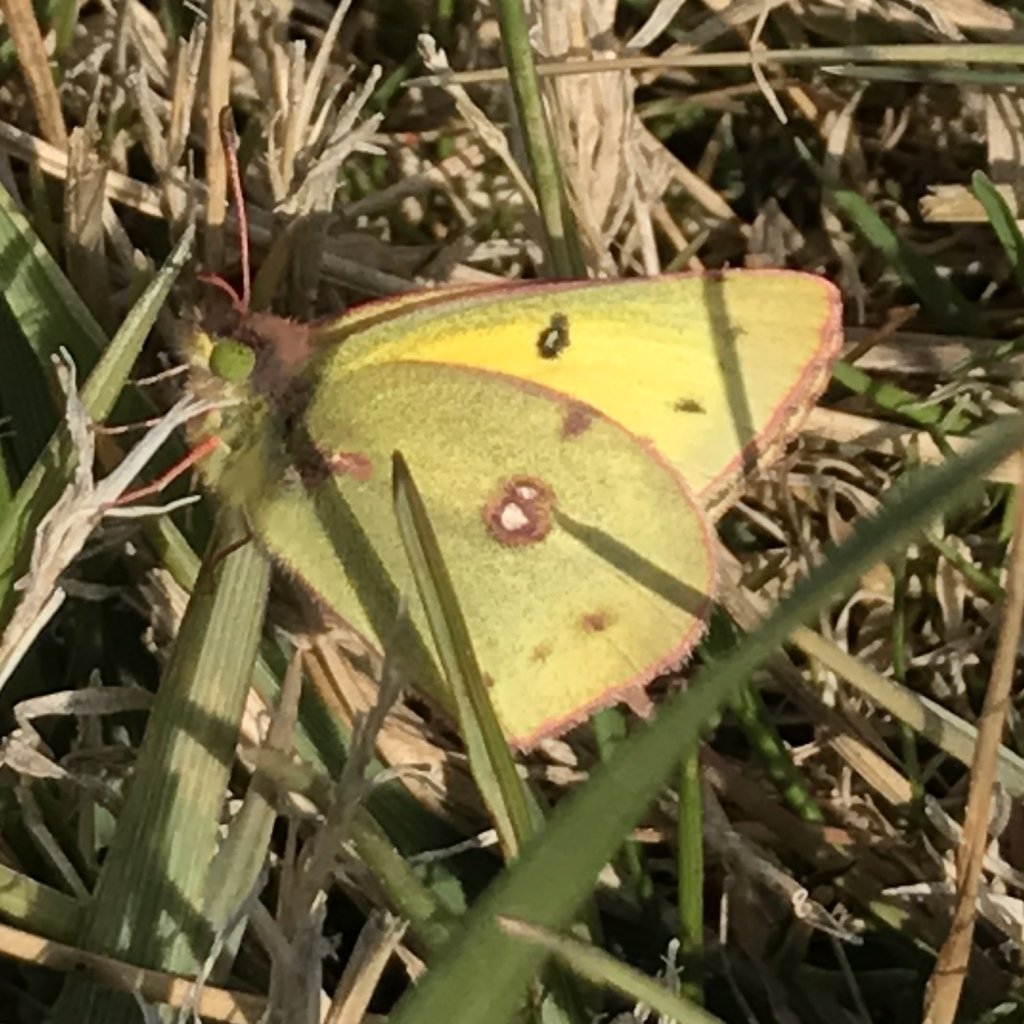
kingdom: Animalia
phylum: Arthropoda
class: Insecta
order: Lepidoptera
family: Pieridae
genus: Colias
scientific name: Colias eurytheme
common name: Orange Sulphur
